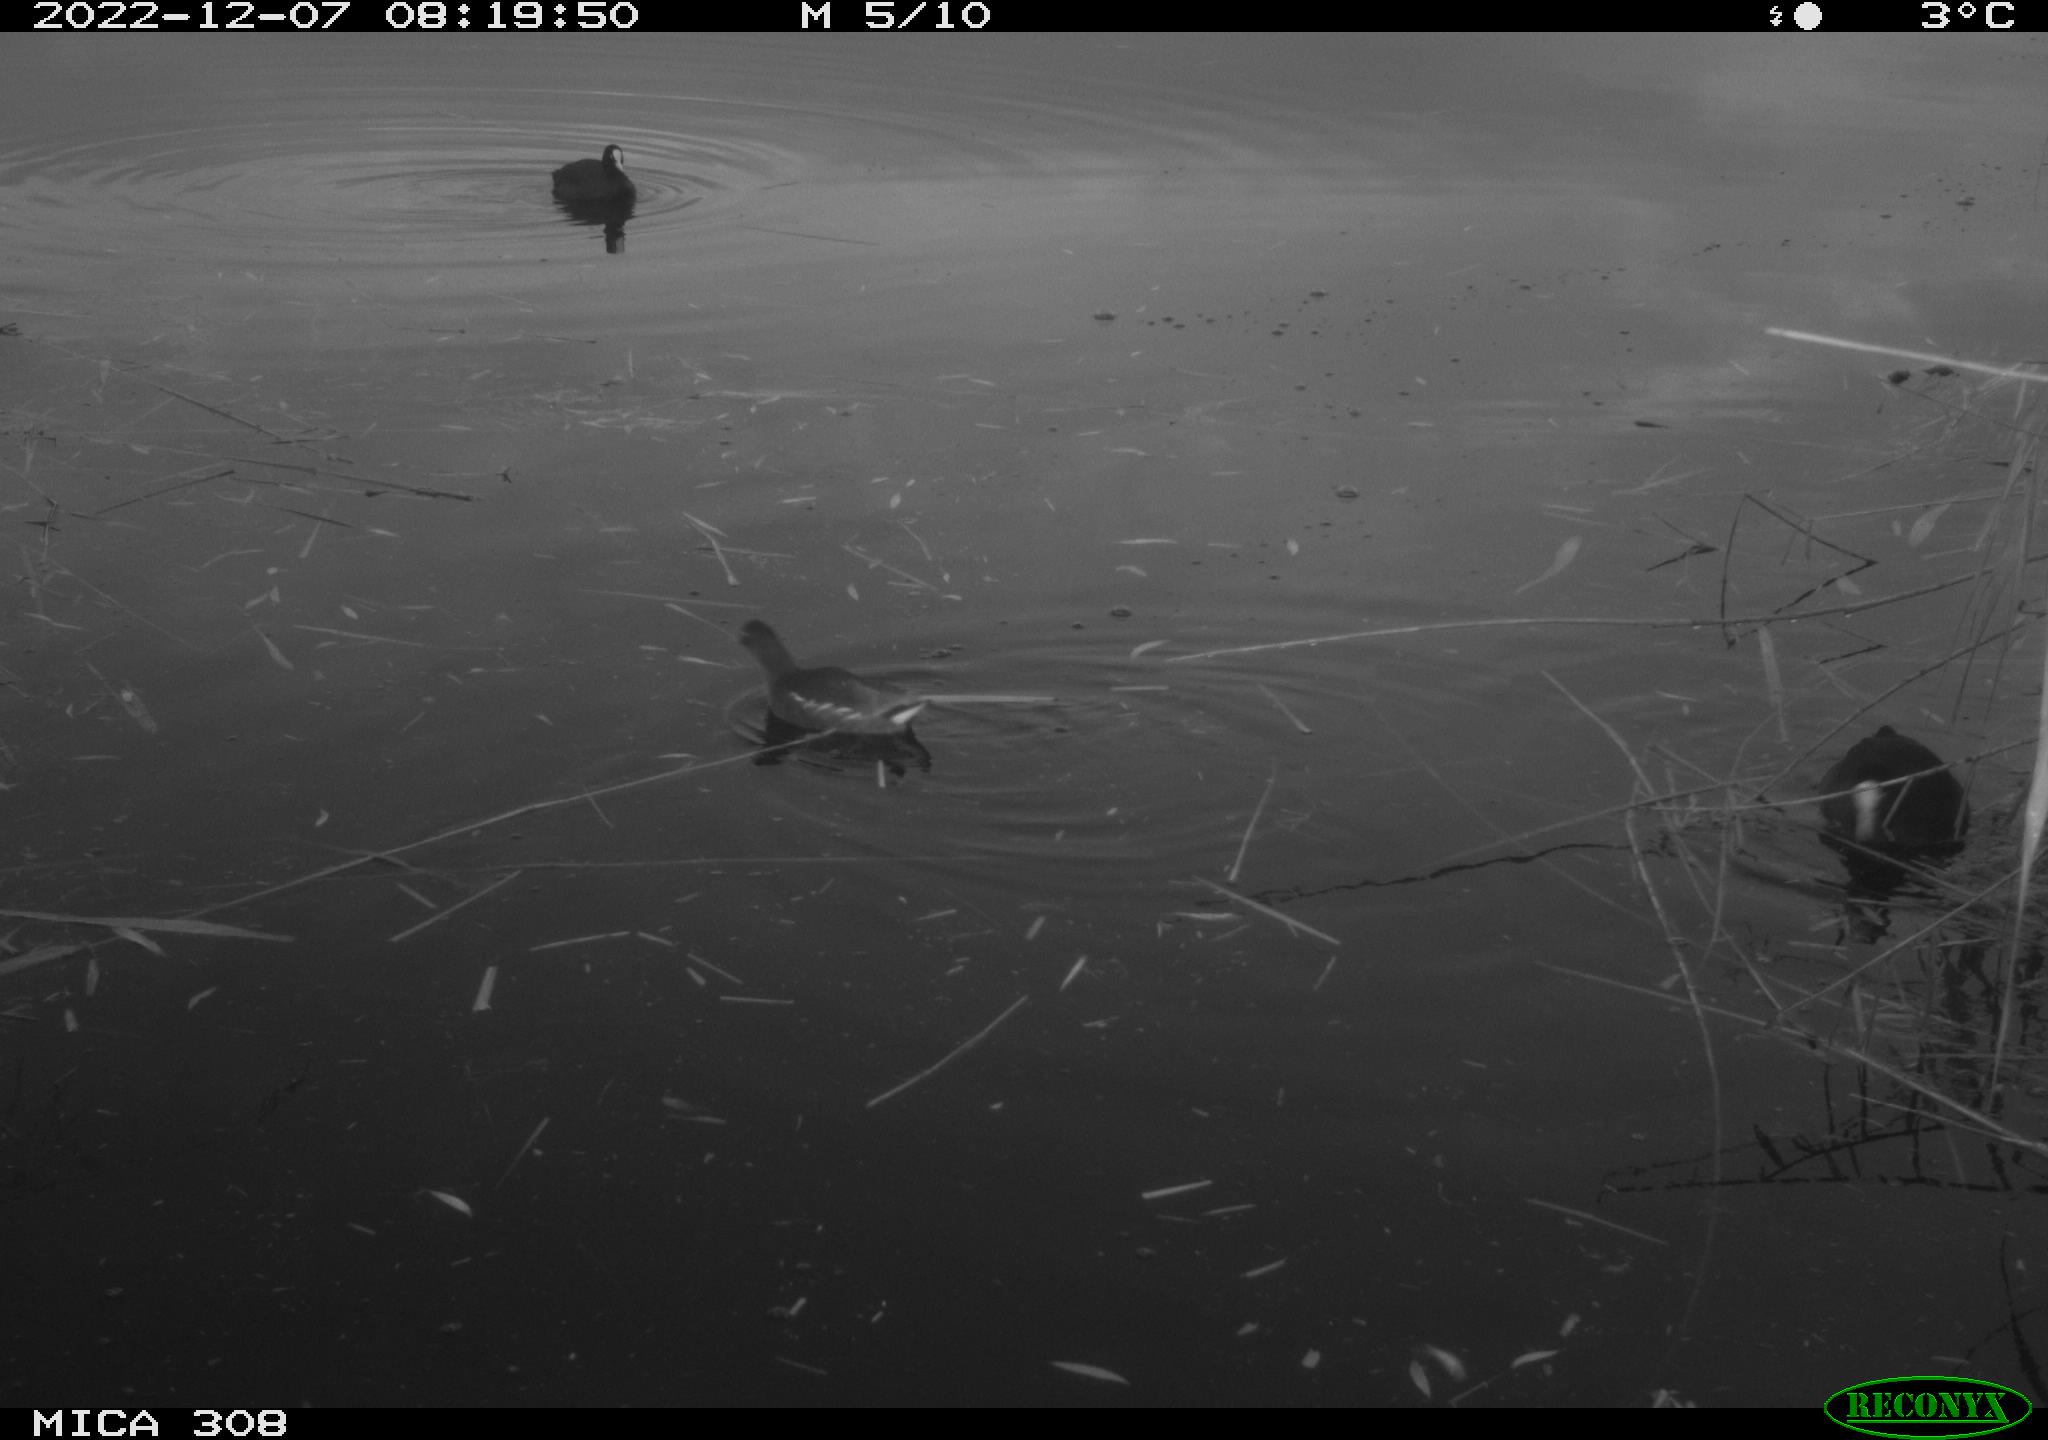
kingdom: Animalia
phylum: Chordata
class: Aves
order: Gruiformes
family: Rallidae
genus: Fulica
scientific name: Fulica atra
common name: Eurasian coot
